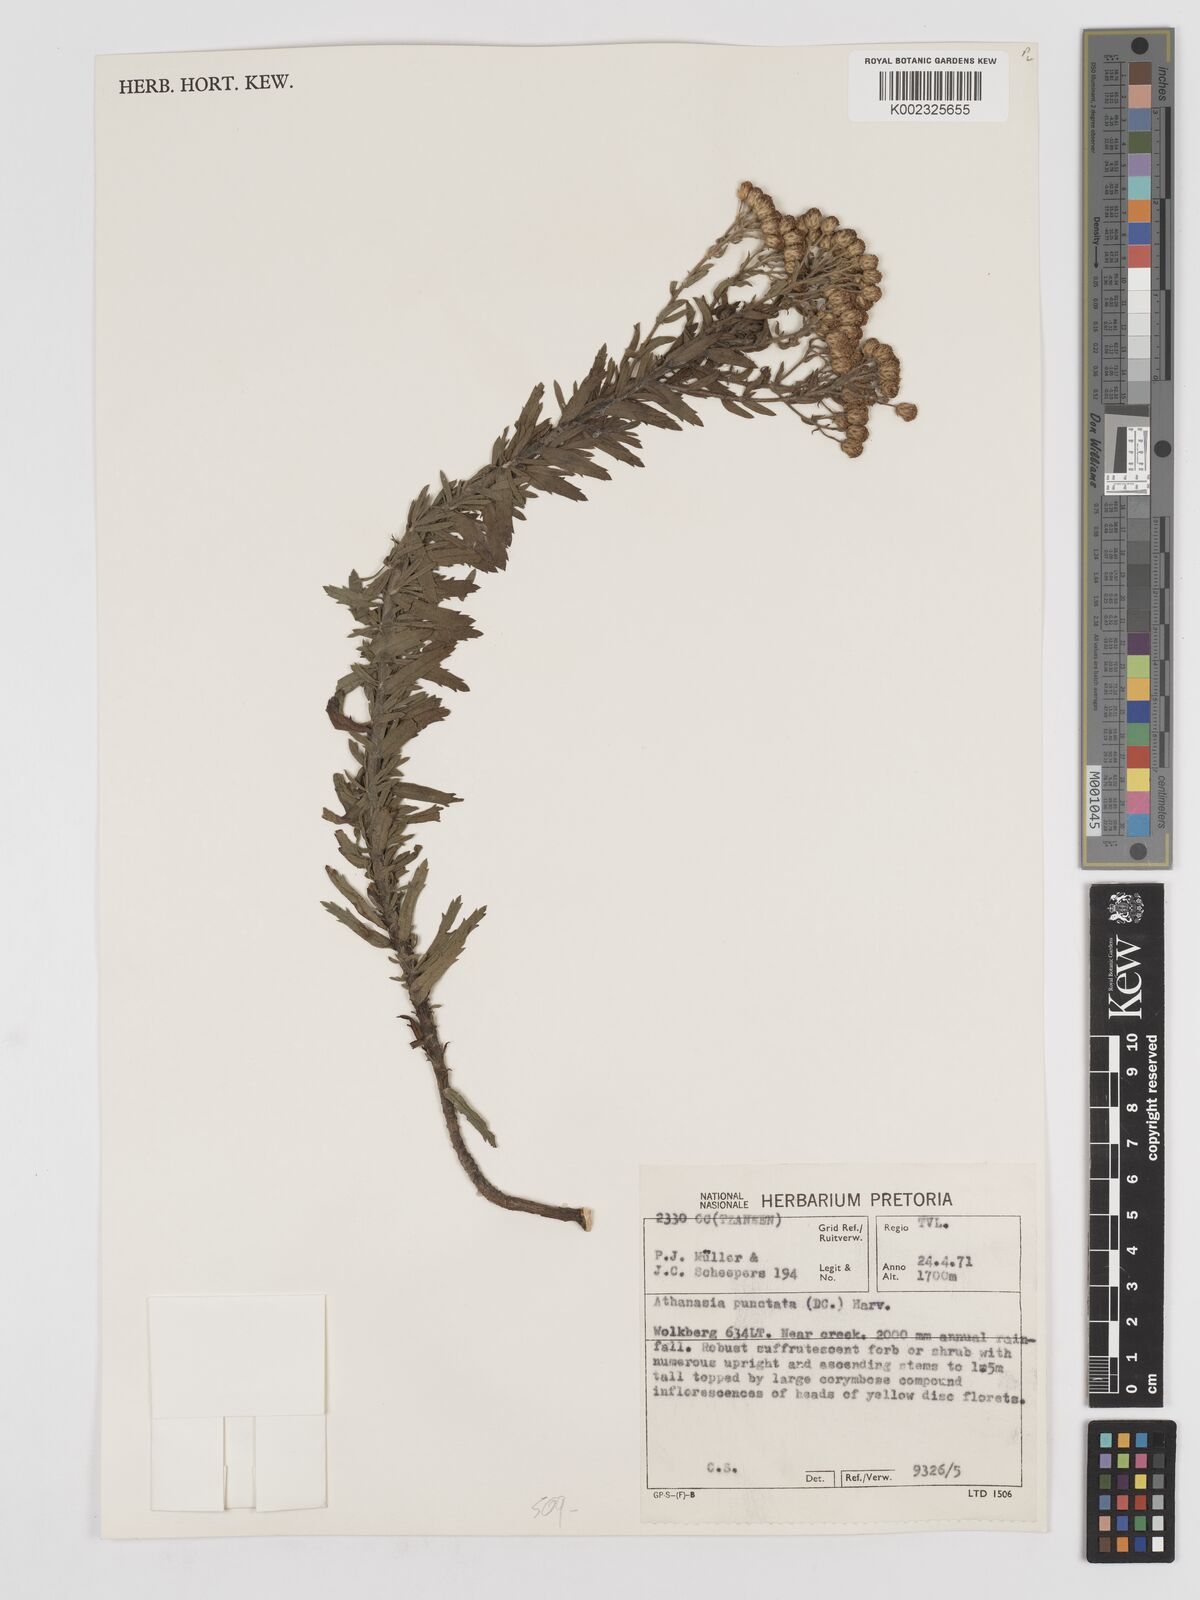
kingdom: Plantae
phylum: Tracheophyta
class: Magnoliopsida
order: Asterales
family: Asteraceae
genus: Inulanthera
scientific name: Inulanthera dregeana
